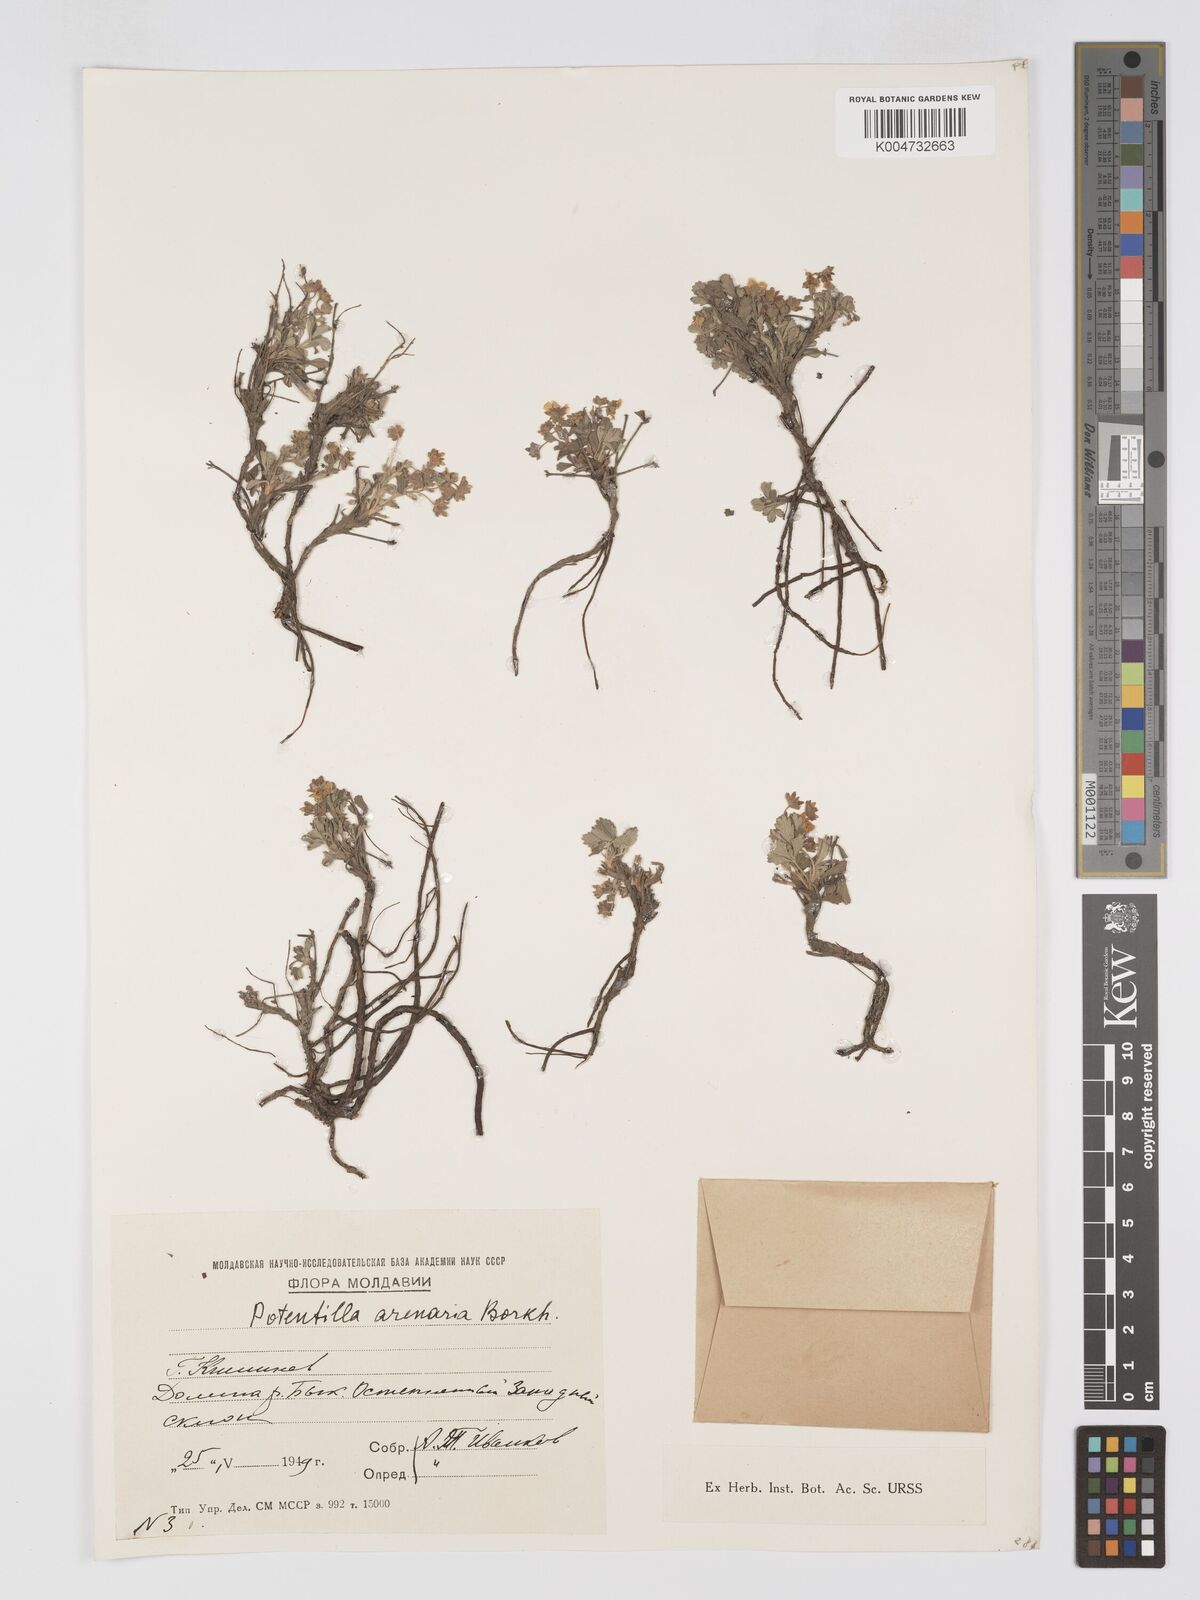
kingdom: Plantae
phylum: Tracheophyta
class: Magnoliopsida
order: Rosales
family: Rosaceae
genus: Potentilla
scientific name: Potentilla cinerea
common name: Ashy cinquefoil
